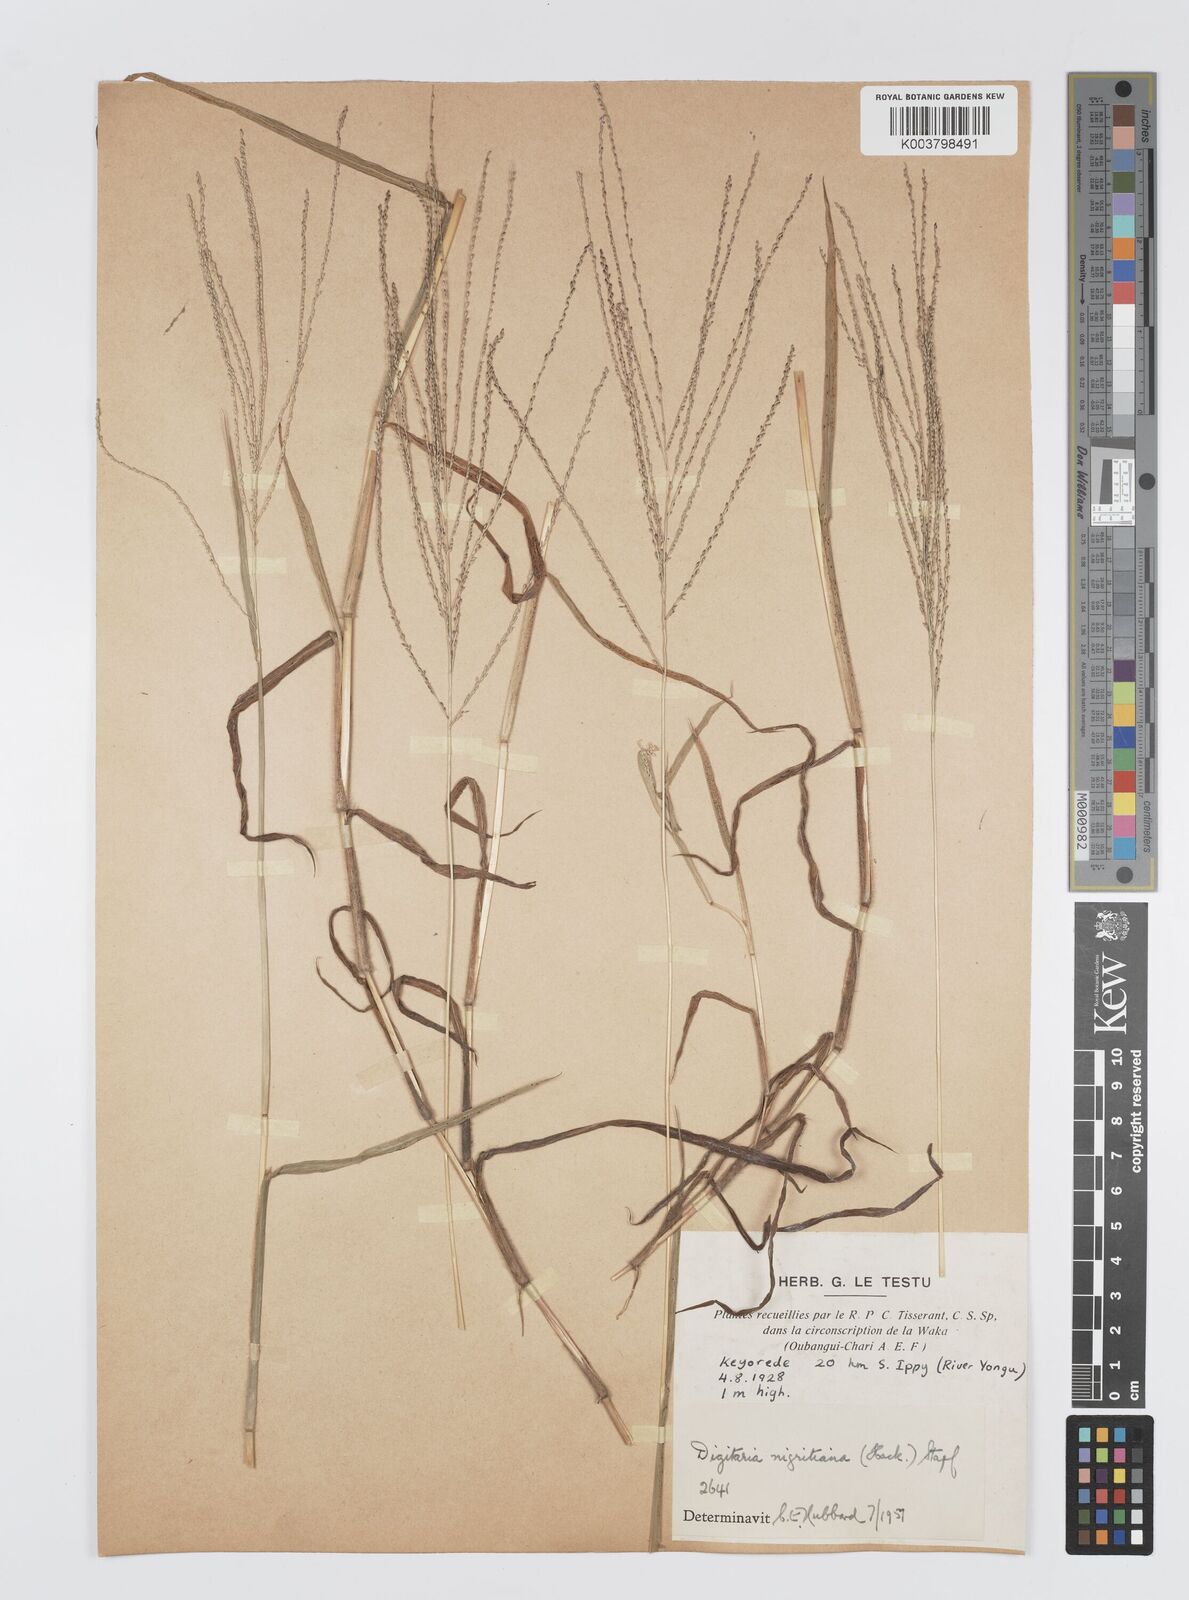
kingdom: Plantae
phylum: Tracheophyta
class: Liliopsida
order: Poales
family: Poaceae
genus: Digitaria
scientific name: Digitaria leptorhachis
